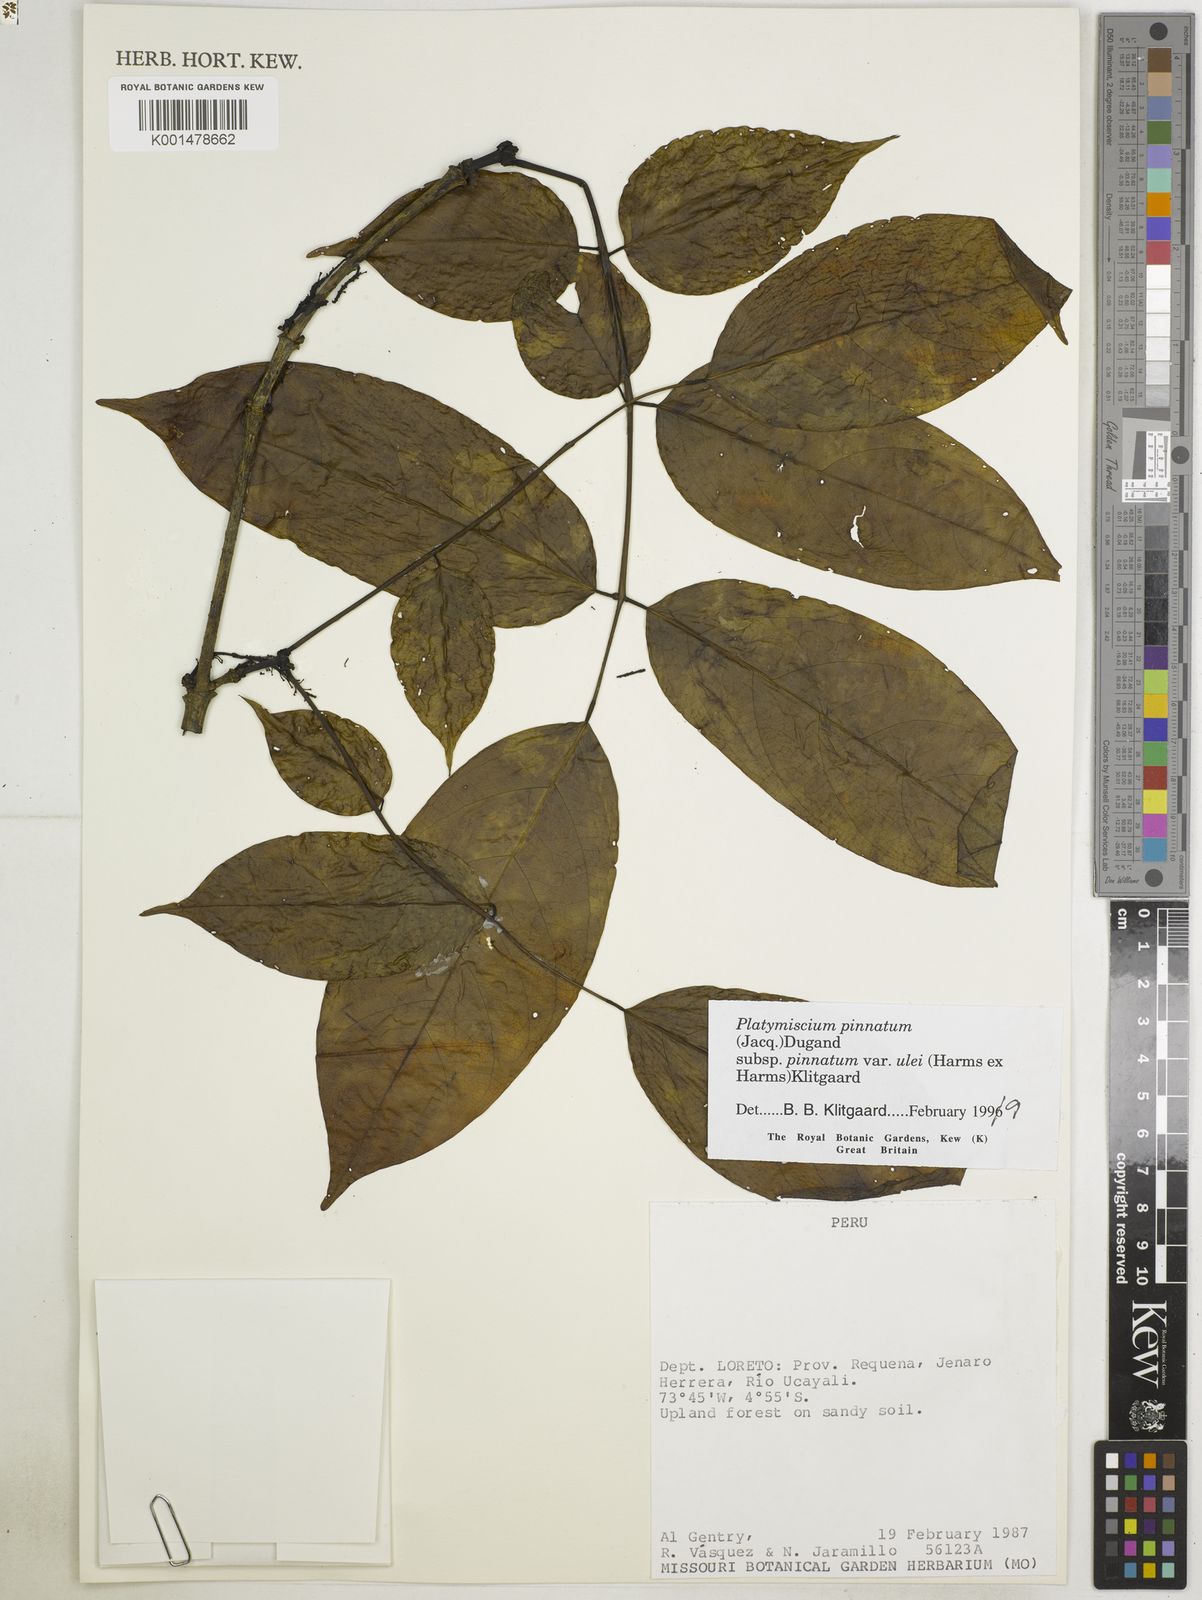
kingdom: Plantae
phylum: Tracheophyta
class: Magnoliopsida
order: Fabales
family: Fabaceae
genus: Platymiscium
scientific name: Platymiscium pinnatum
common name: Panama redwood
